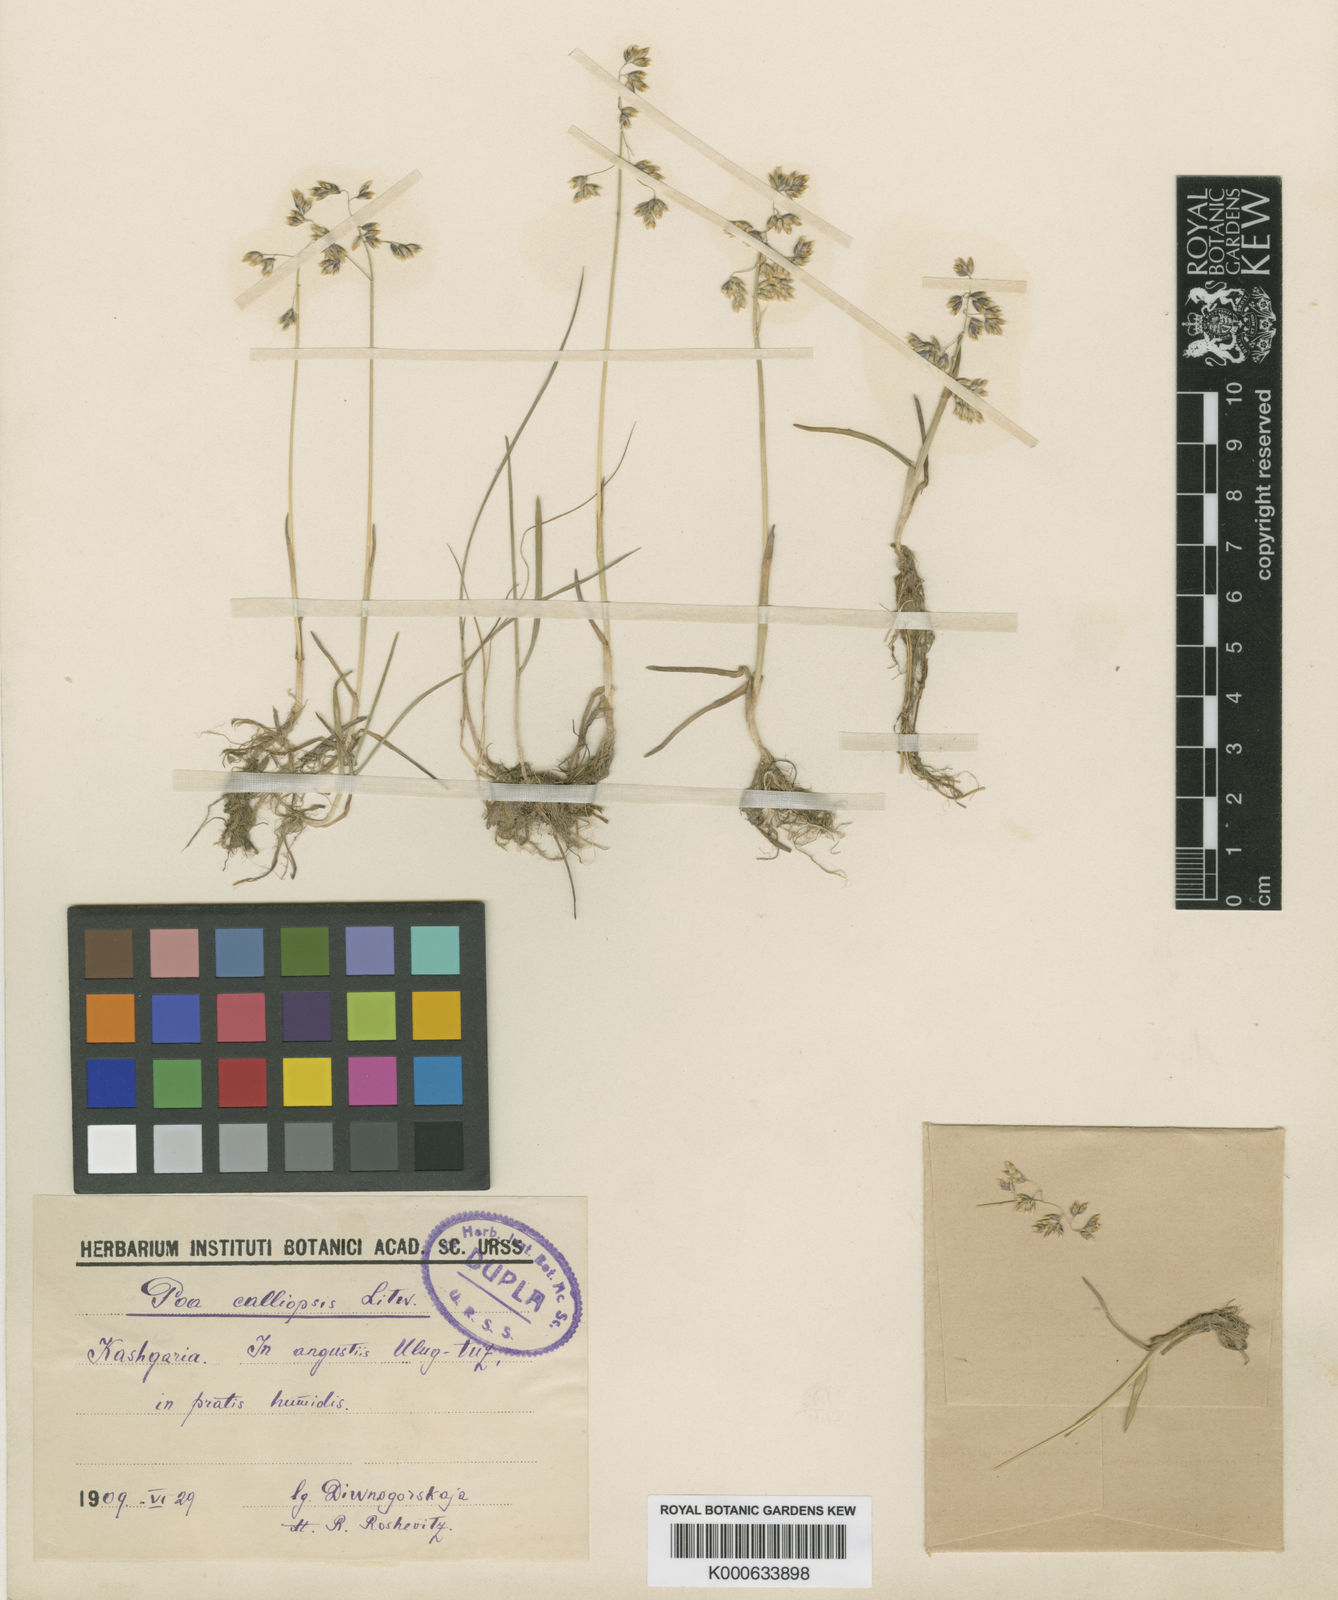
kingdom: Plantae
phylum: Tracheophyta
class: Liliopsida
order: Poales
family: Poaceae
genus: Poa
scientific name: Poa calliopsis
